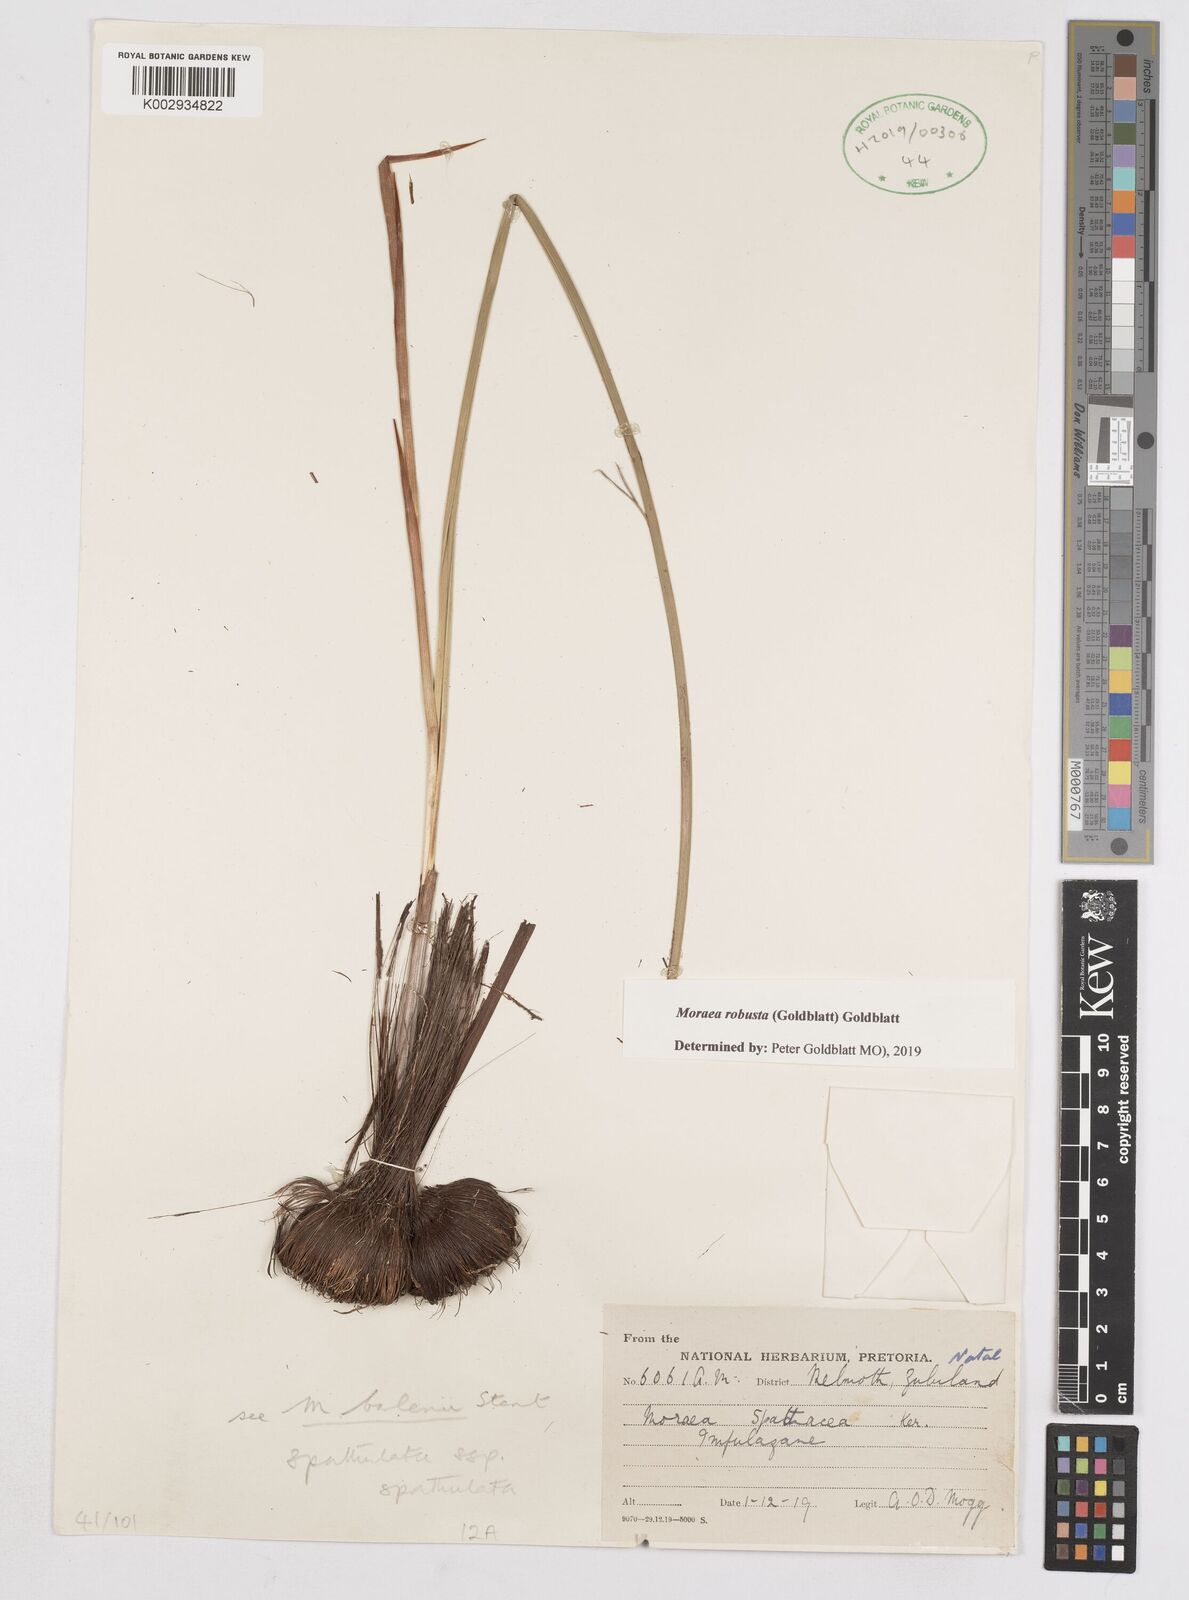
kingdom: Plantae
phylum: Tracheophyta
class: Liliopsida
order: Asparagales
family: Iridaceae
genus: Moraea
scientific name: Moraea robusta
